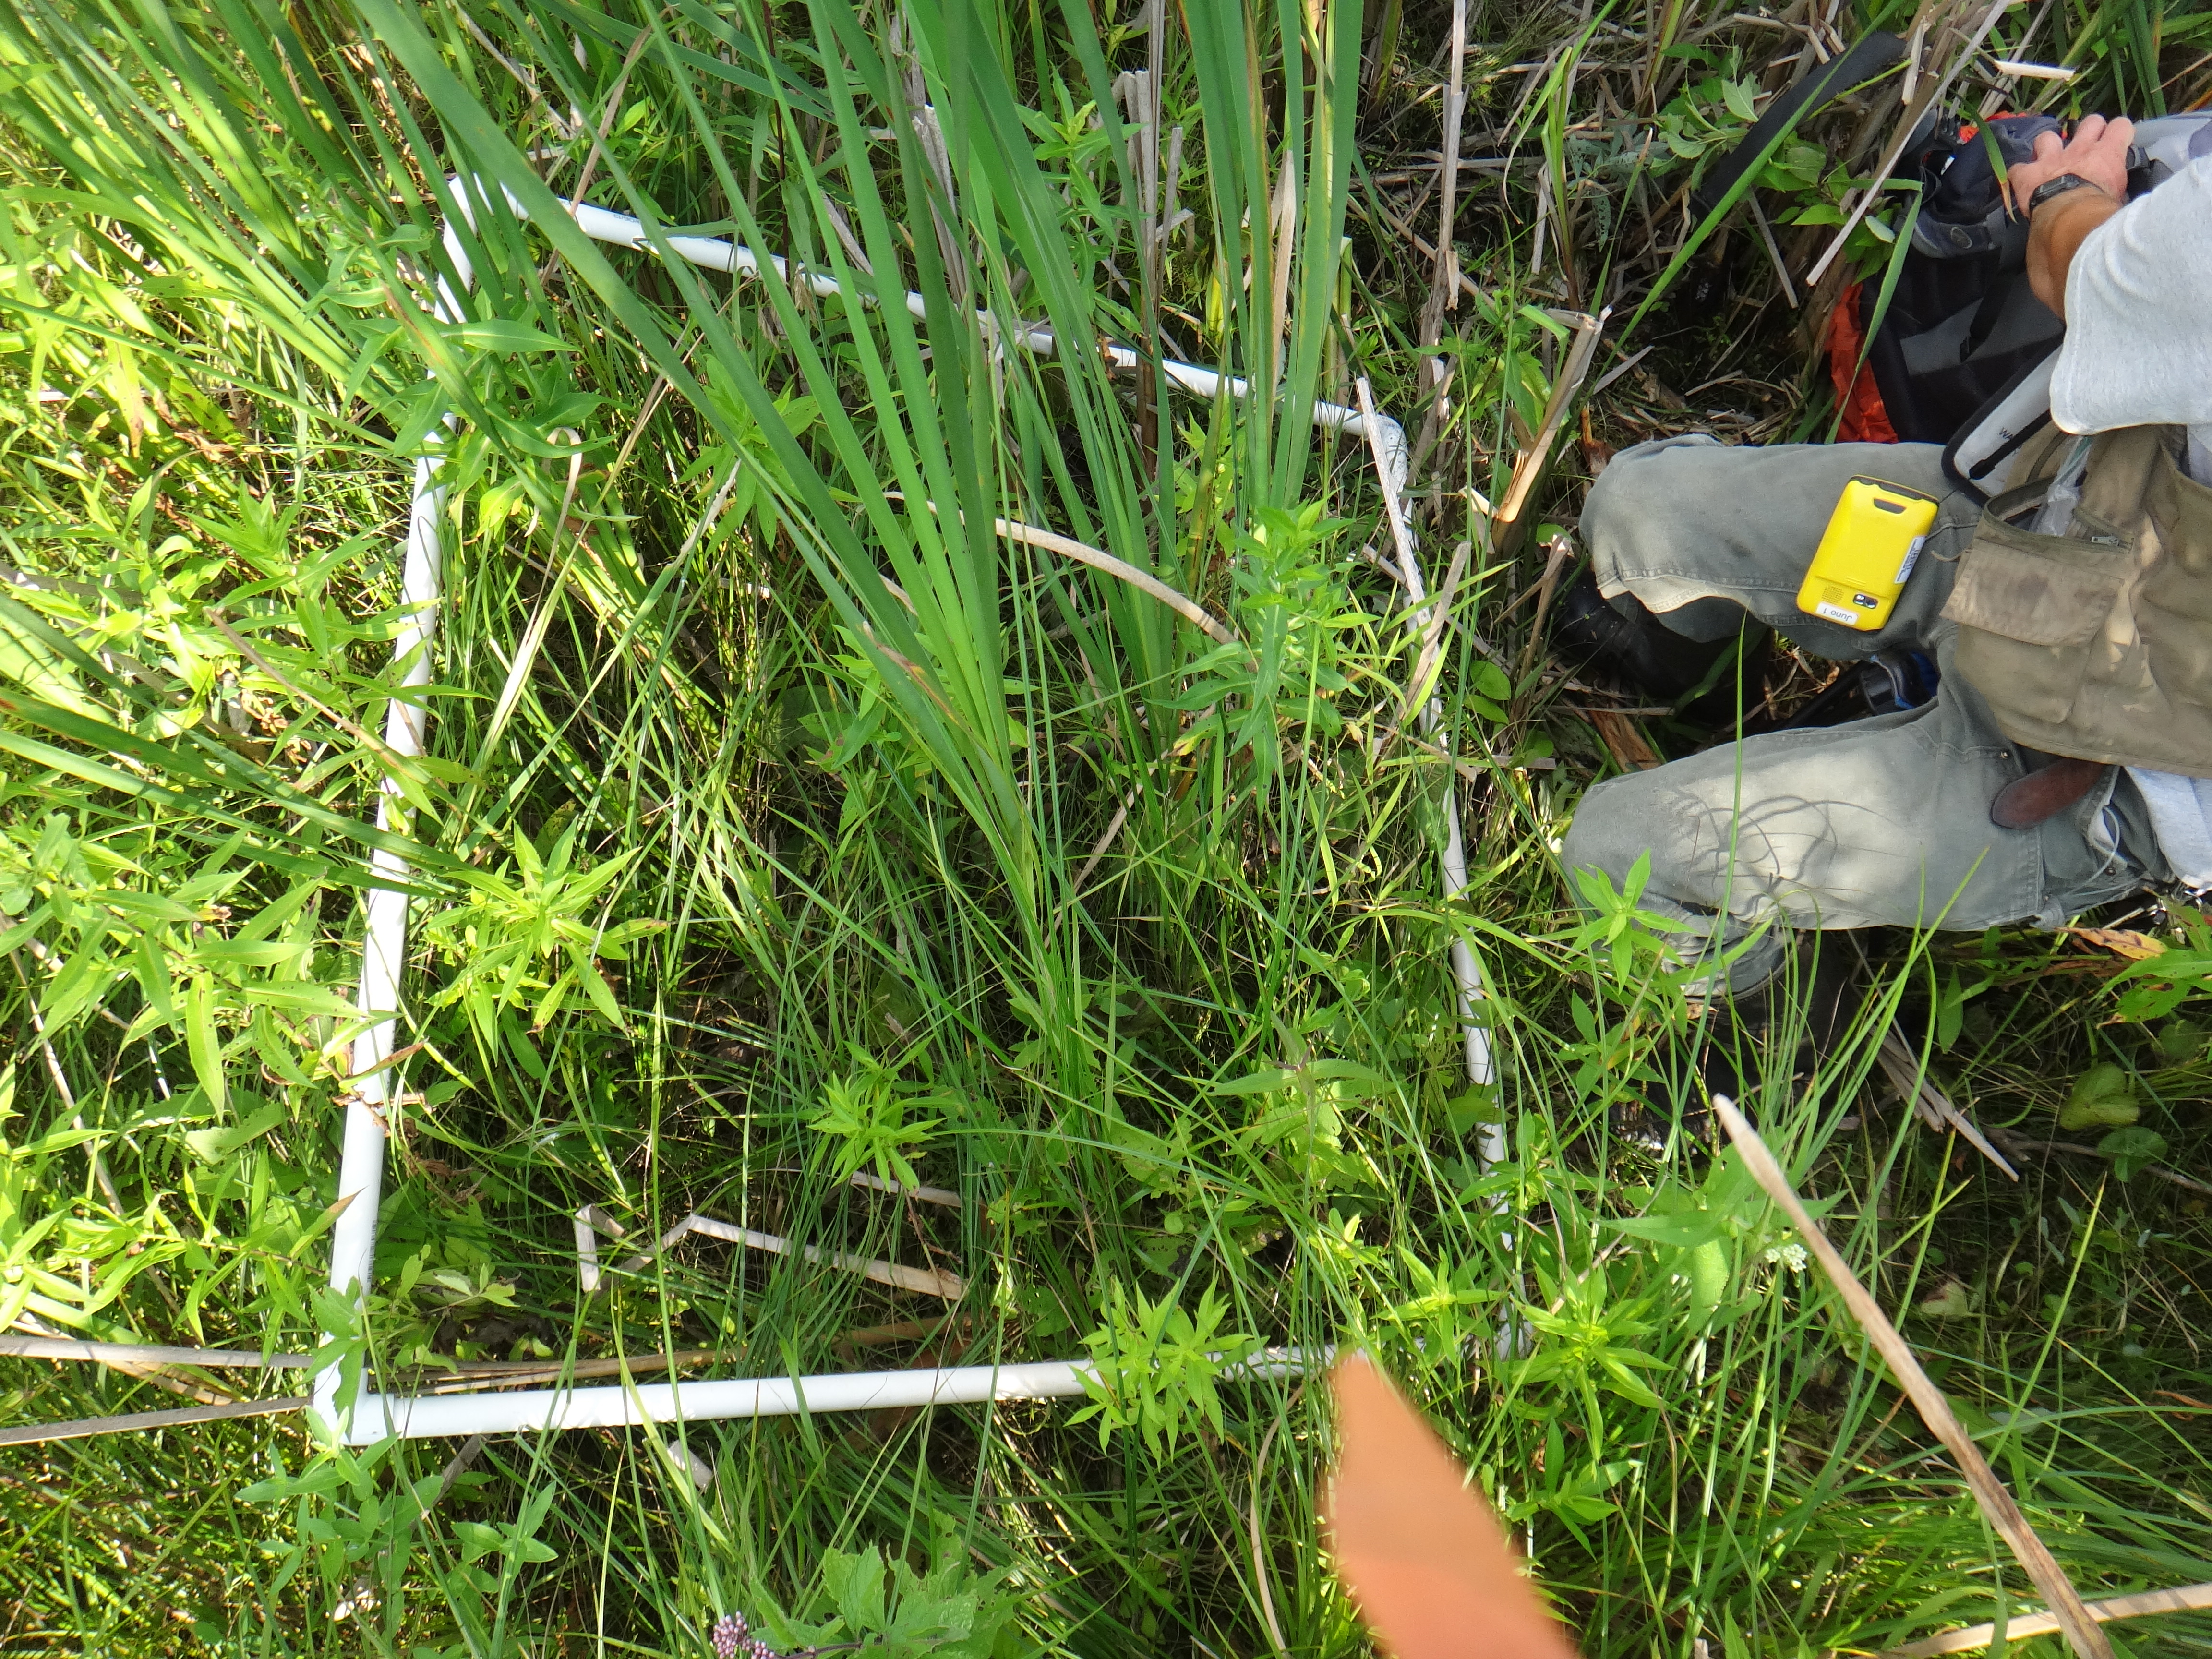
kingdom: Plantae
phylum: Tracheophyta
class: Liliopsida
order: Poales
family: Poaceae
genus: Muhlenbergia
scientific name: Muhlenbergia glomerata
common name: Bog muhly
